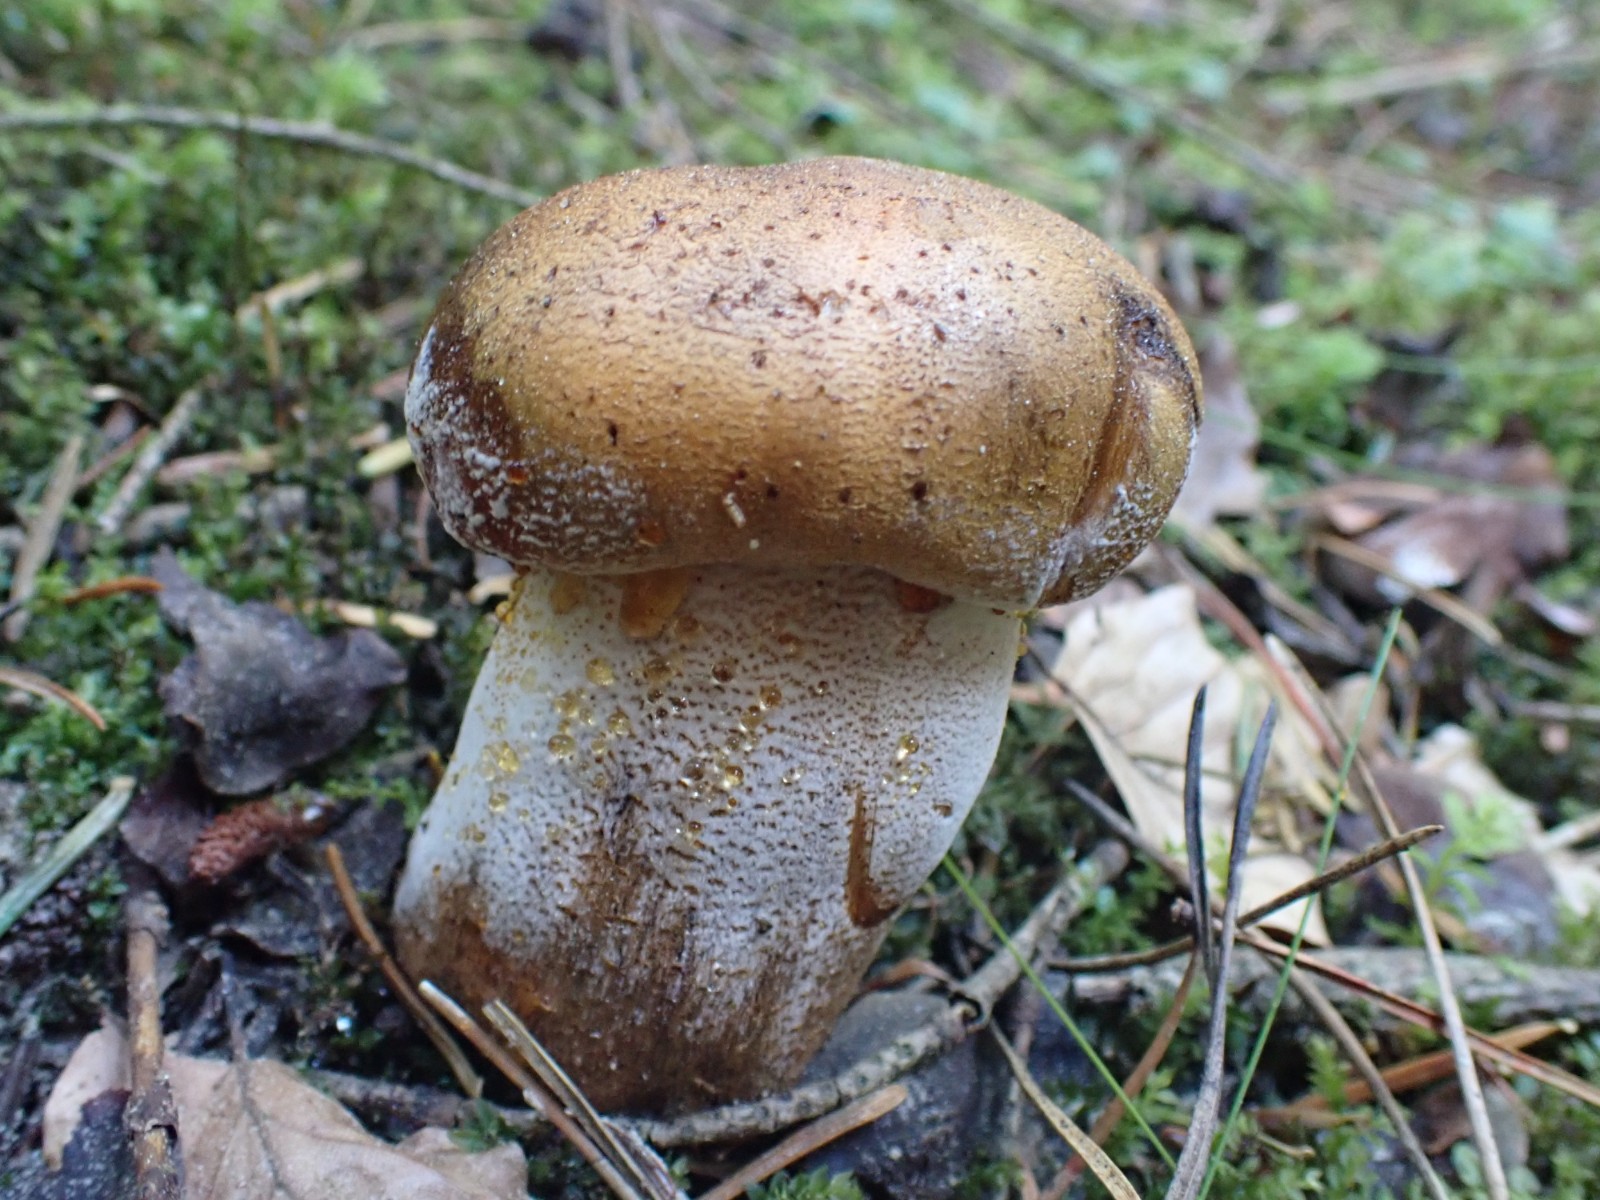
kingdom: Fungi
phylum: Basidiomycota
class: Agaricomycetes
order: Agaricales
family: Tricholomataceae
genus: Tricholoma
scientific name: Tricholoma aurantium
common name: orangegul ridderhat
